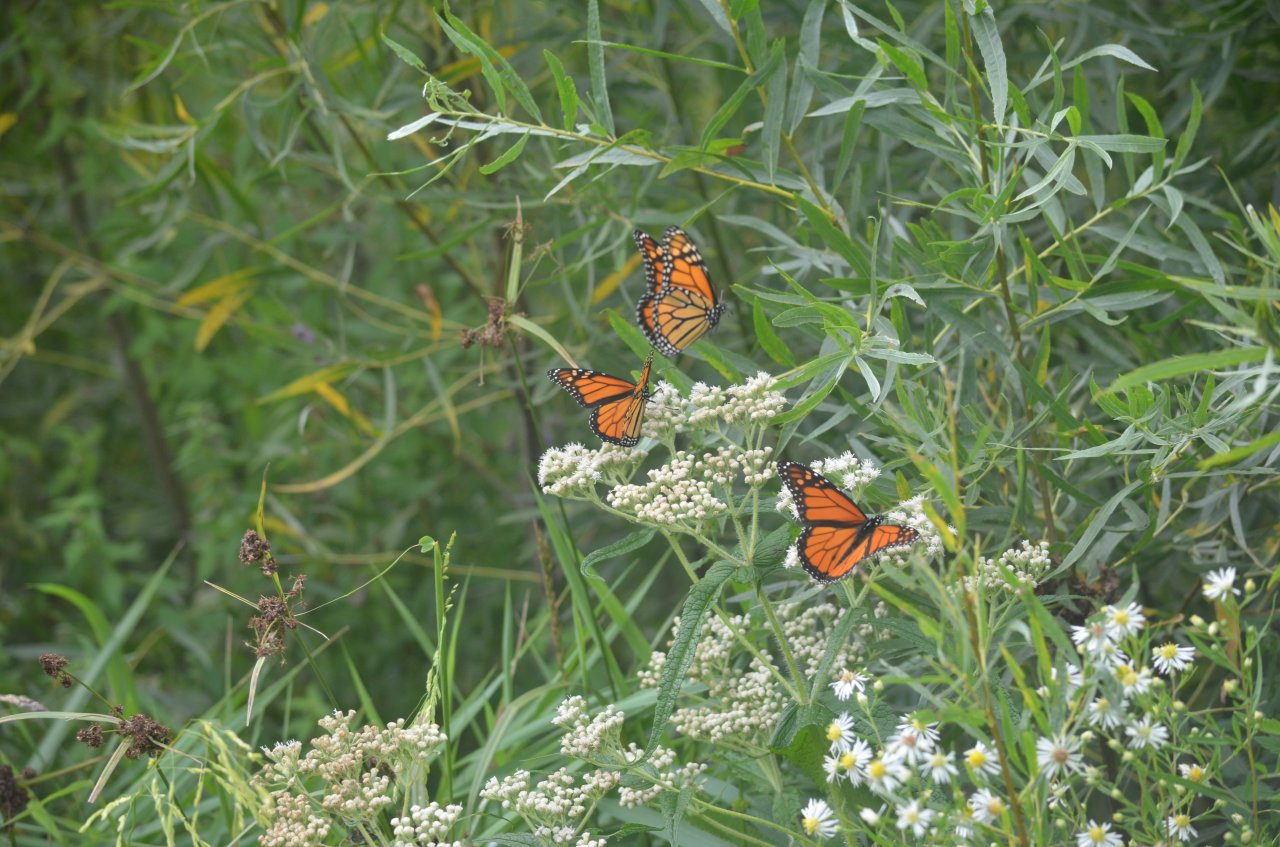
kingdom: Animalia
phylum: Arthropoda
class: Insecta
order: Lepidoptera
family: Nymphalidae
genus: Danaus
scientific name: Danaus plexippus
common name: Monarch
